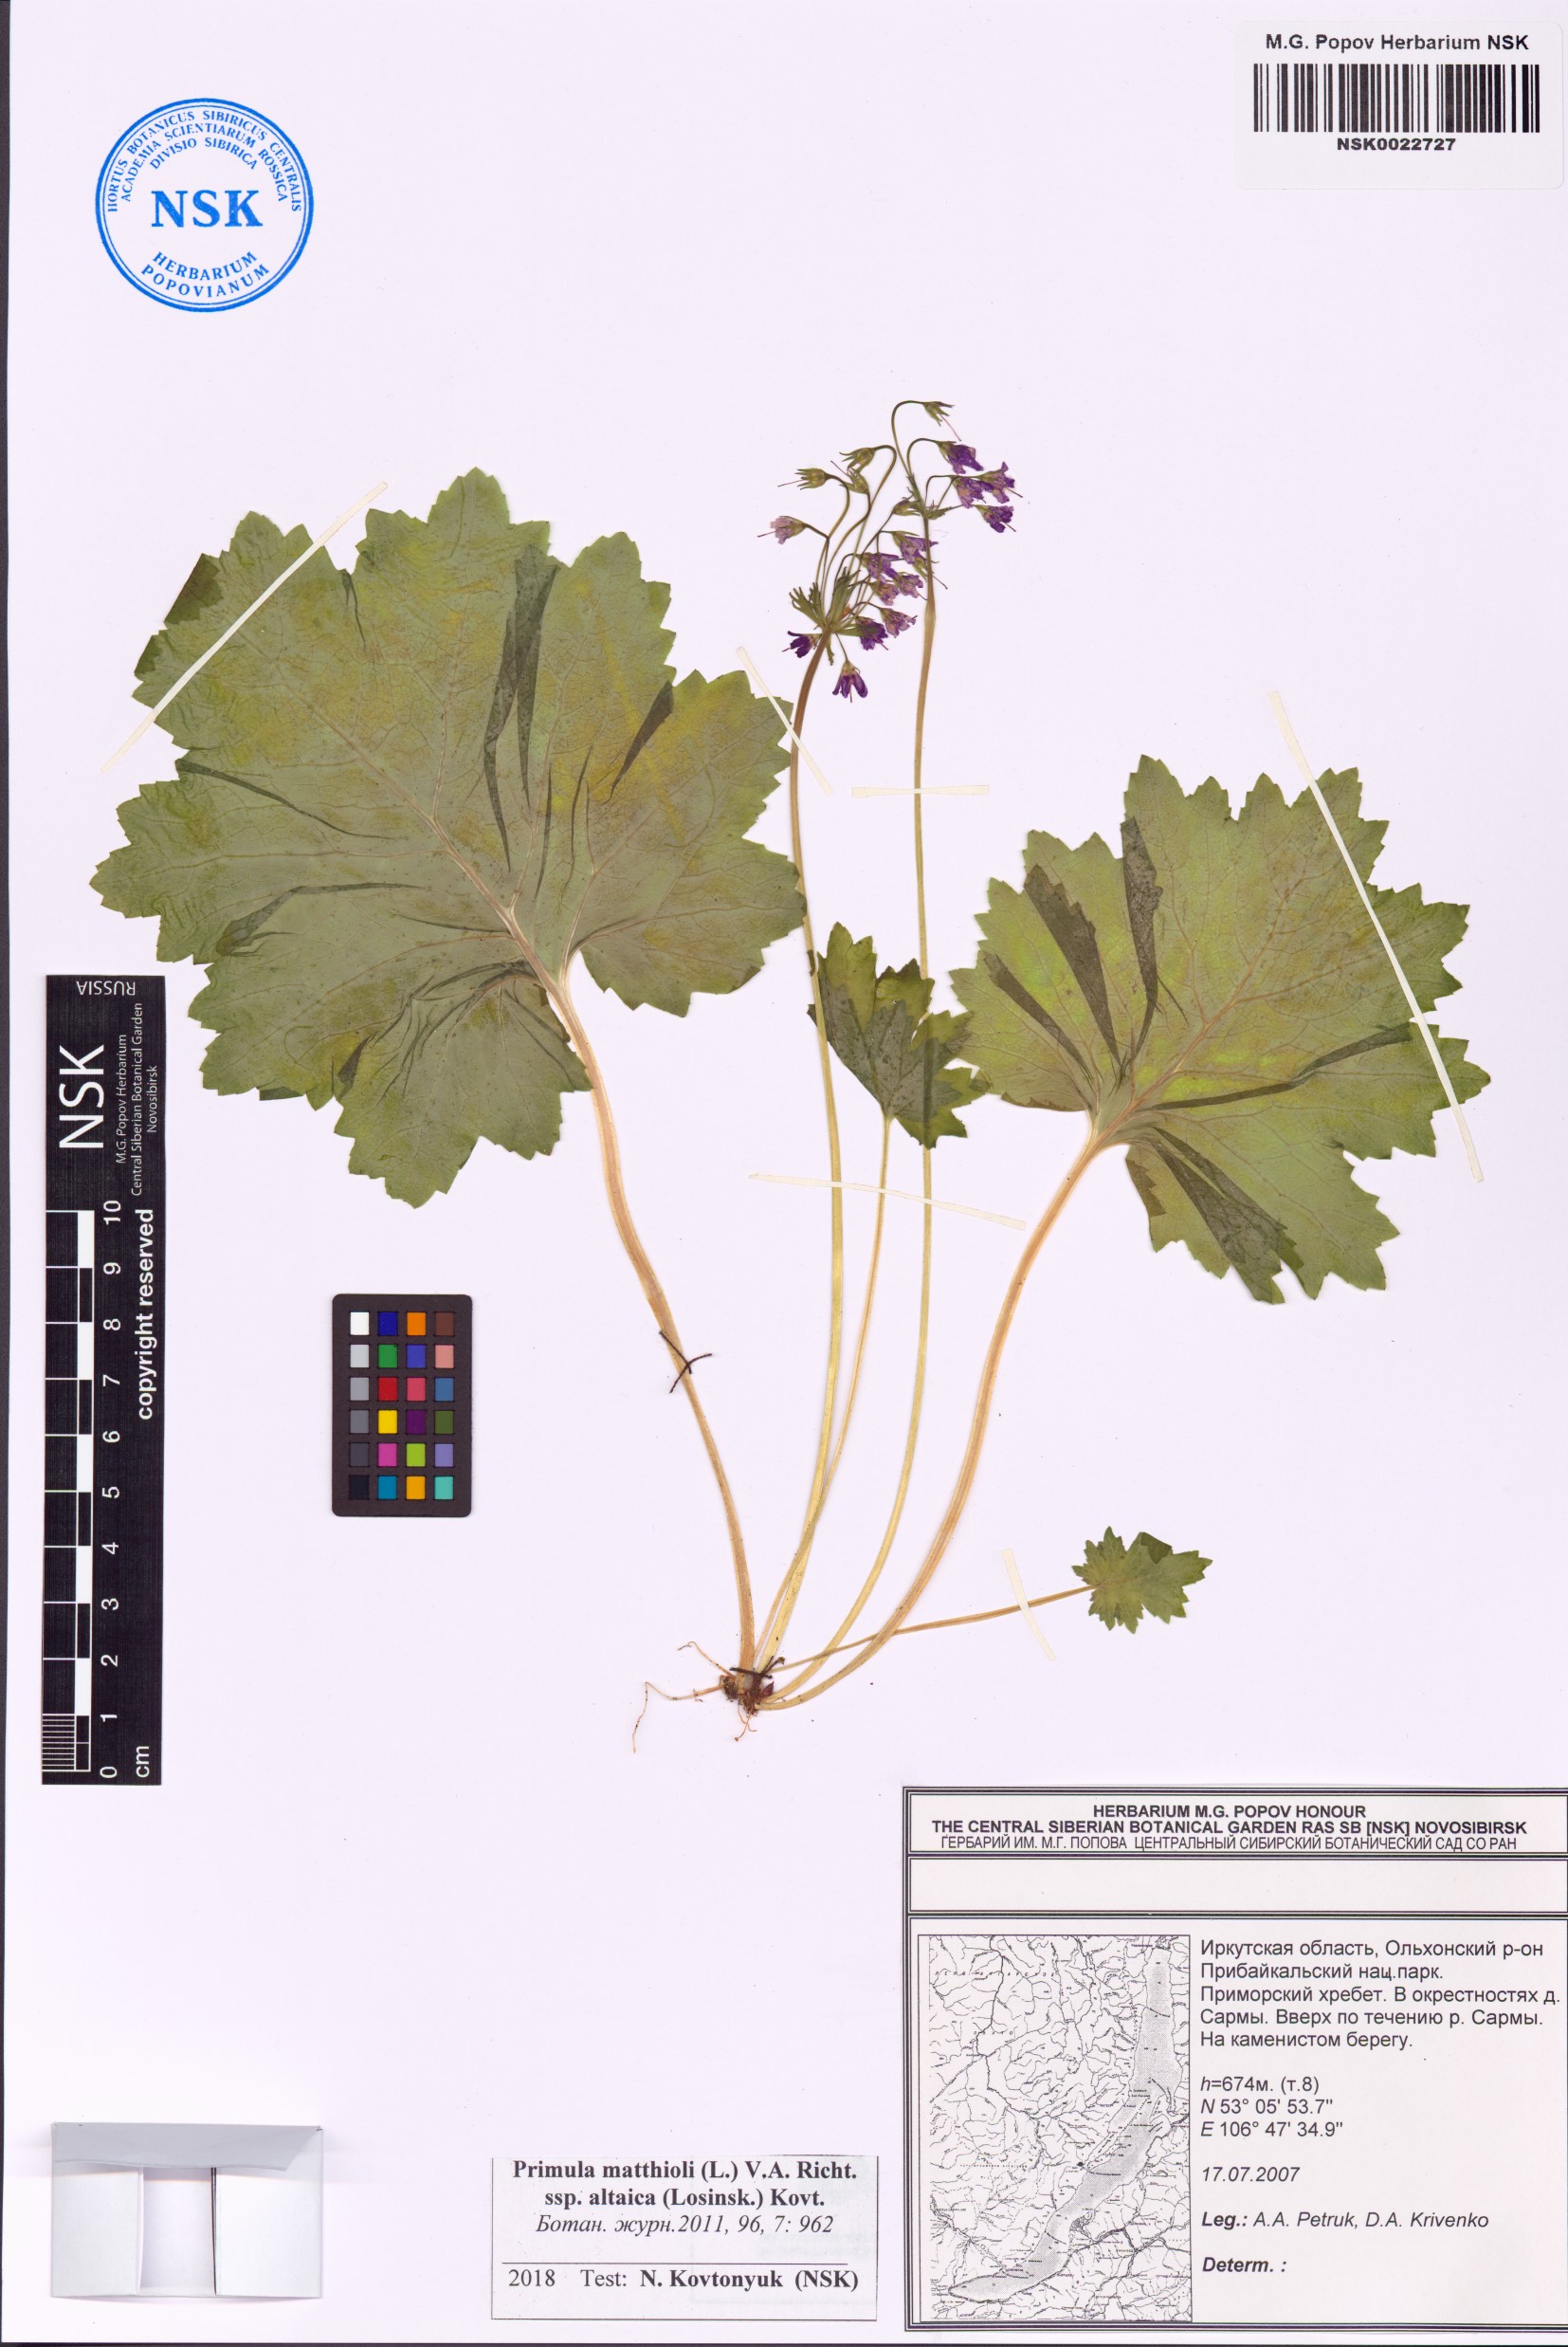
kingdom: Plantae
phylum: Tracheophyta
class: Magnoliopsida
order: Ericales
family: Primulaceae
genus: Primula
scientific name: Primula matthioli
